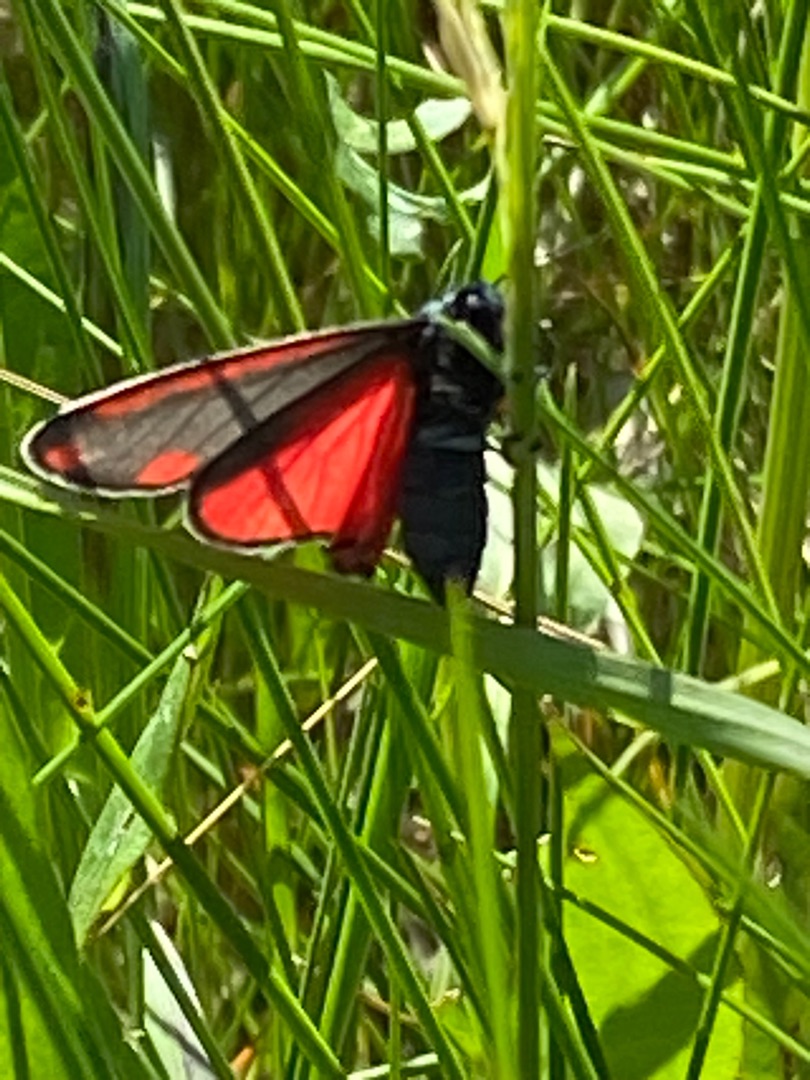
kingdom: Animalia
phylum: Arthropoda
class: Insecta
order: Lepidoptera
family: Erebidae
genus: Tyria
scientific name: Tyria jacobaeae
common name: Blodplet
